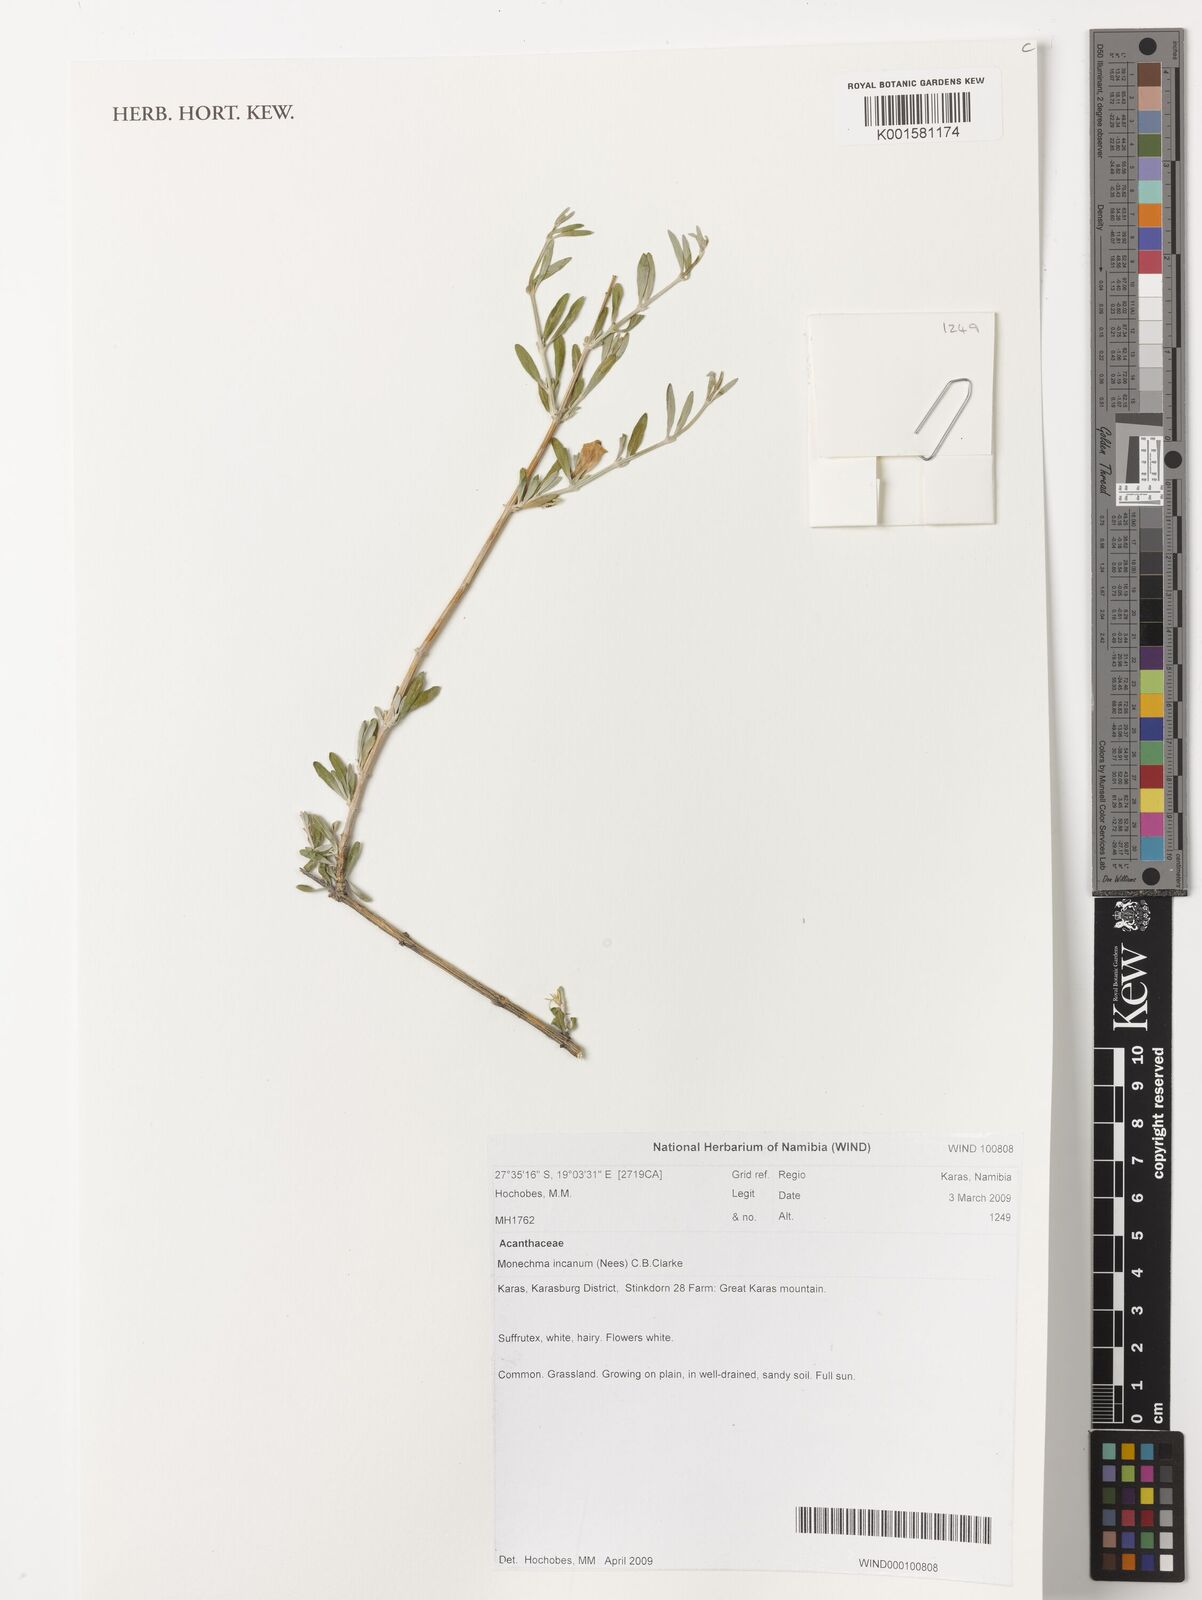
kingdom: Plantae
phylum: Tracheophyta
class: Magnoliopsida
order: Lamiales
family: Acanthaceae
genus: Monechma
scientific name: Monechma incanum
